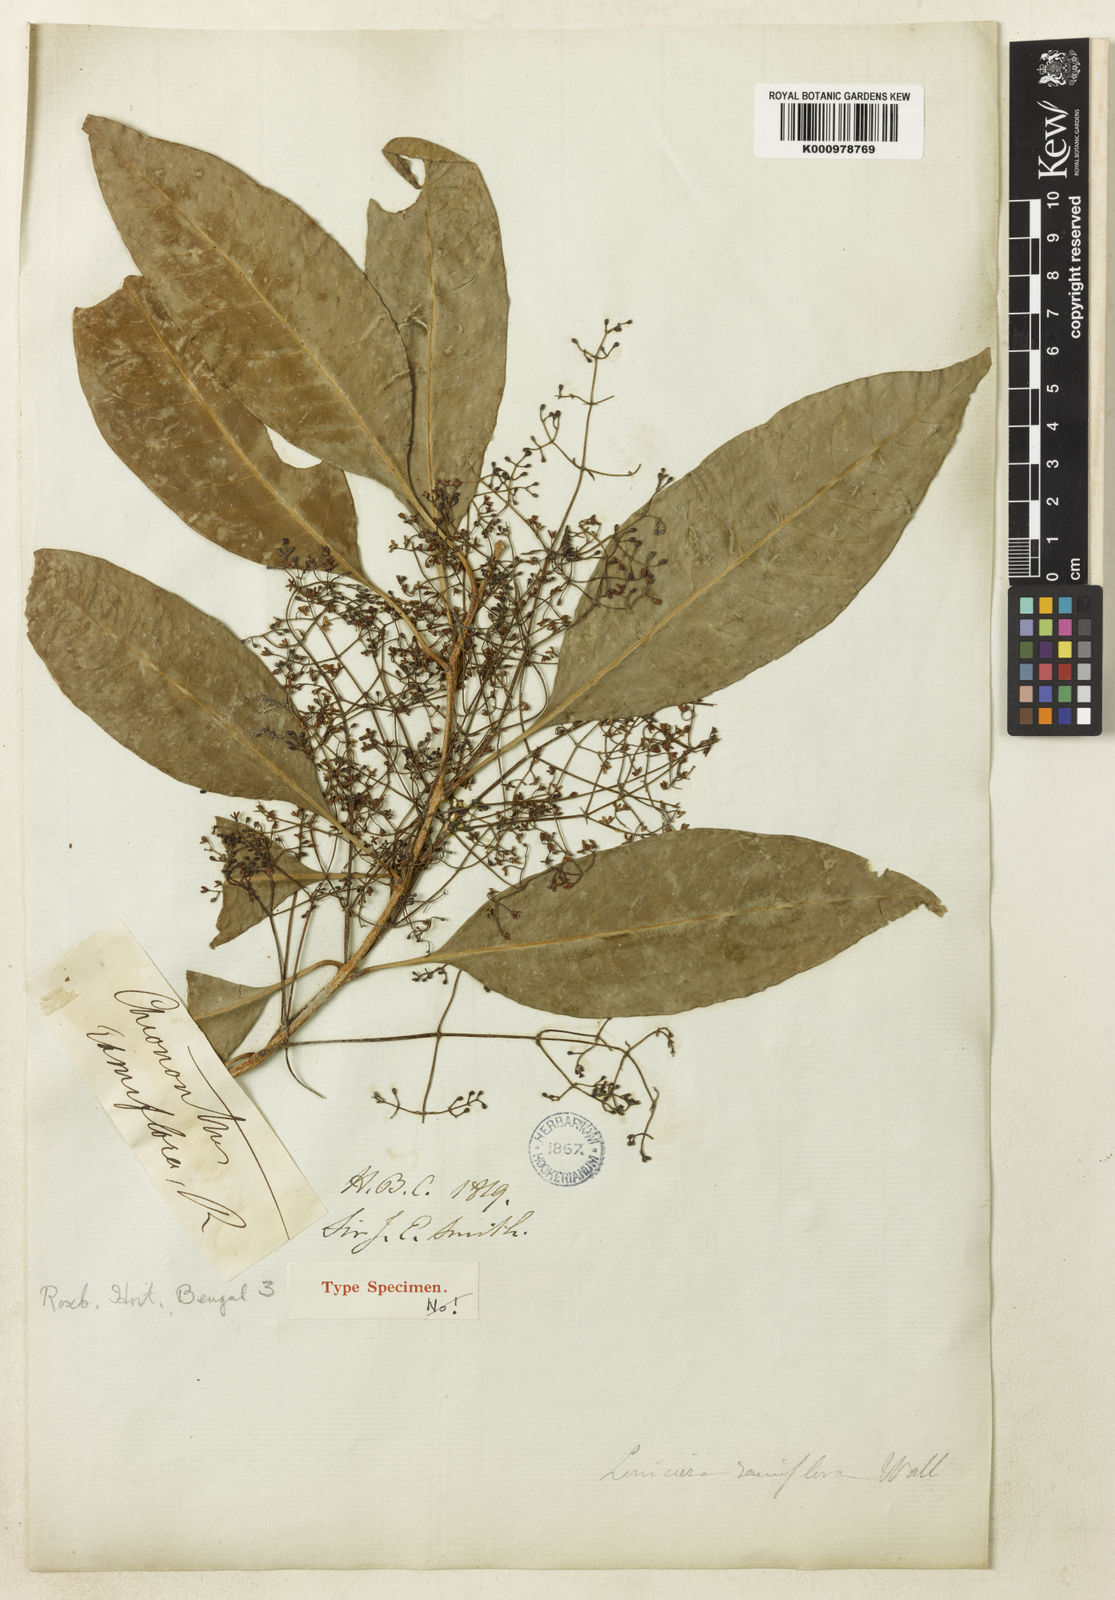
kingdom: Plantae
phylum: Tracheophyta
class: Magnoliopsida
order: Lamiales
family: Oleaceae
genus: Chionanthus
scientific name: Chionanthus ramiflorus
